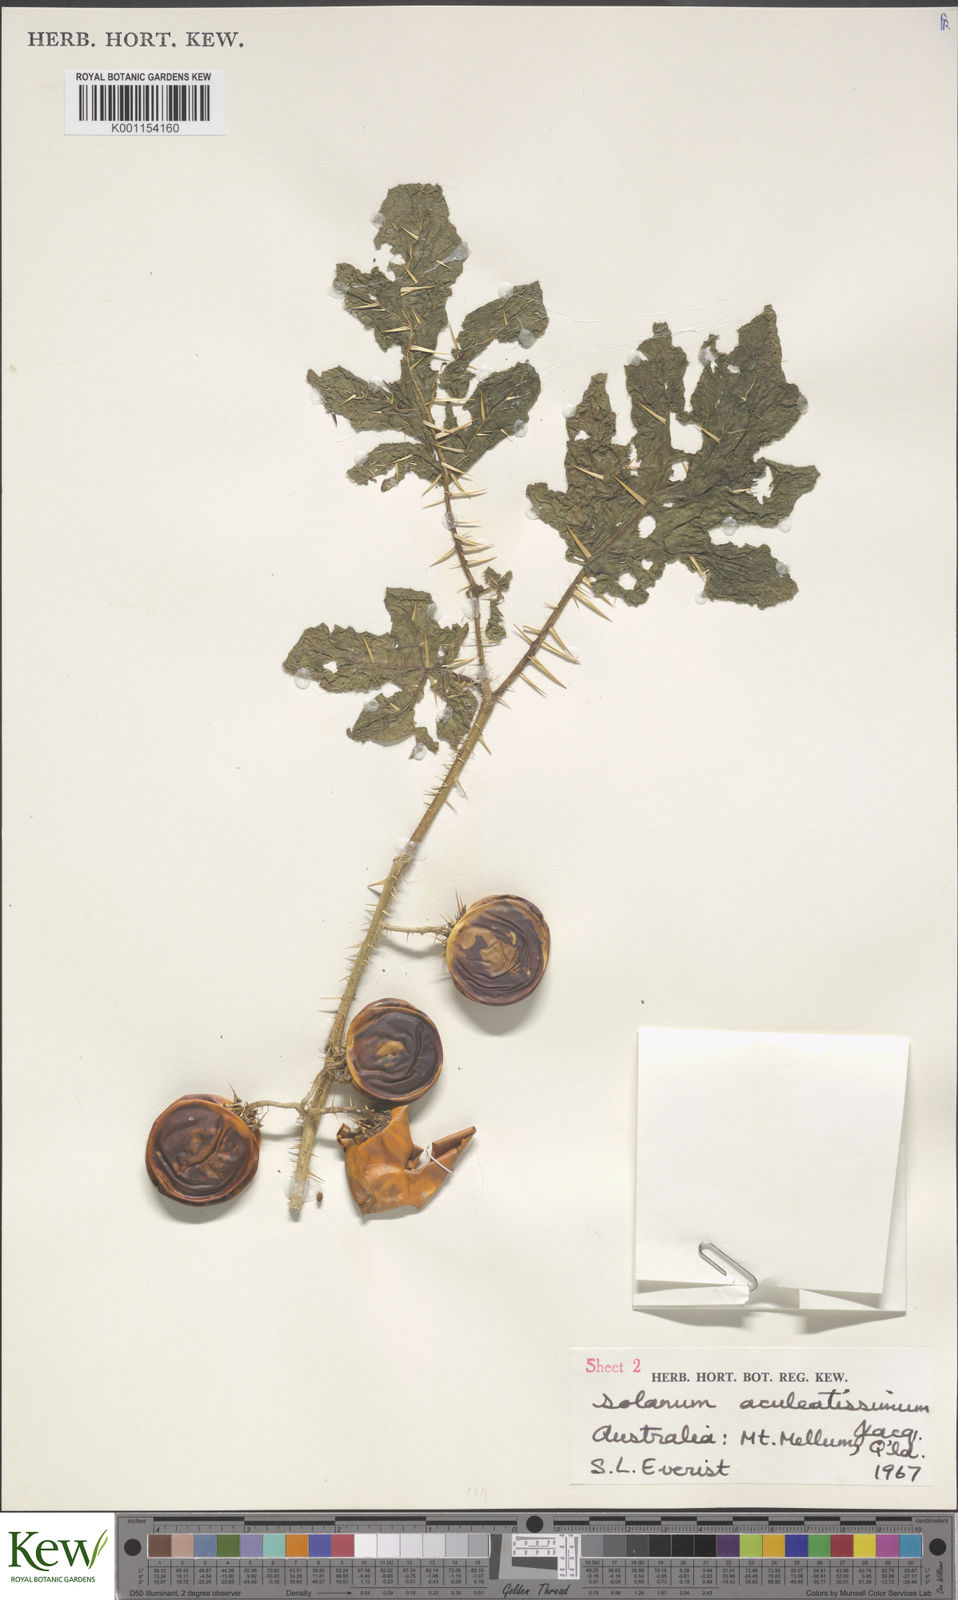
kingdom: Plantae
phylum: Tracheophyta
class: Magnoliopsida
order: Solanales
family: Solanaceae
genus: Solanum
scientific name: Solanum capsicoides
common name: Cockroach berry
